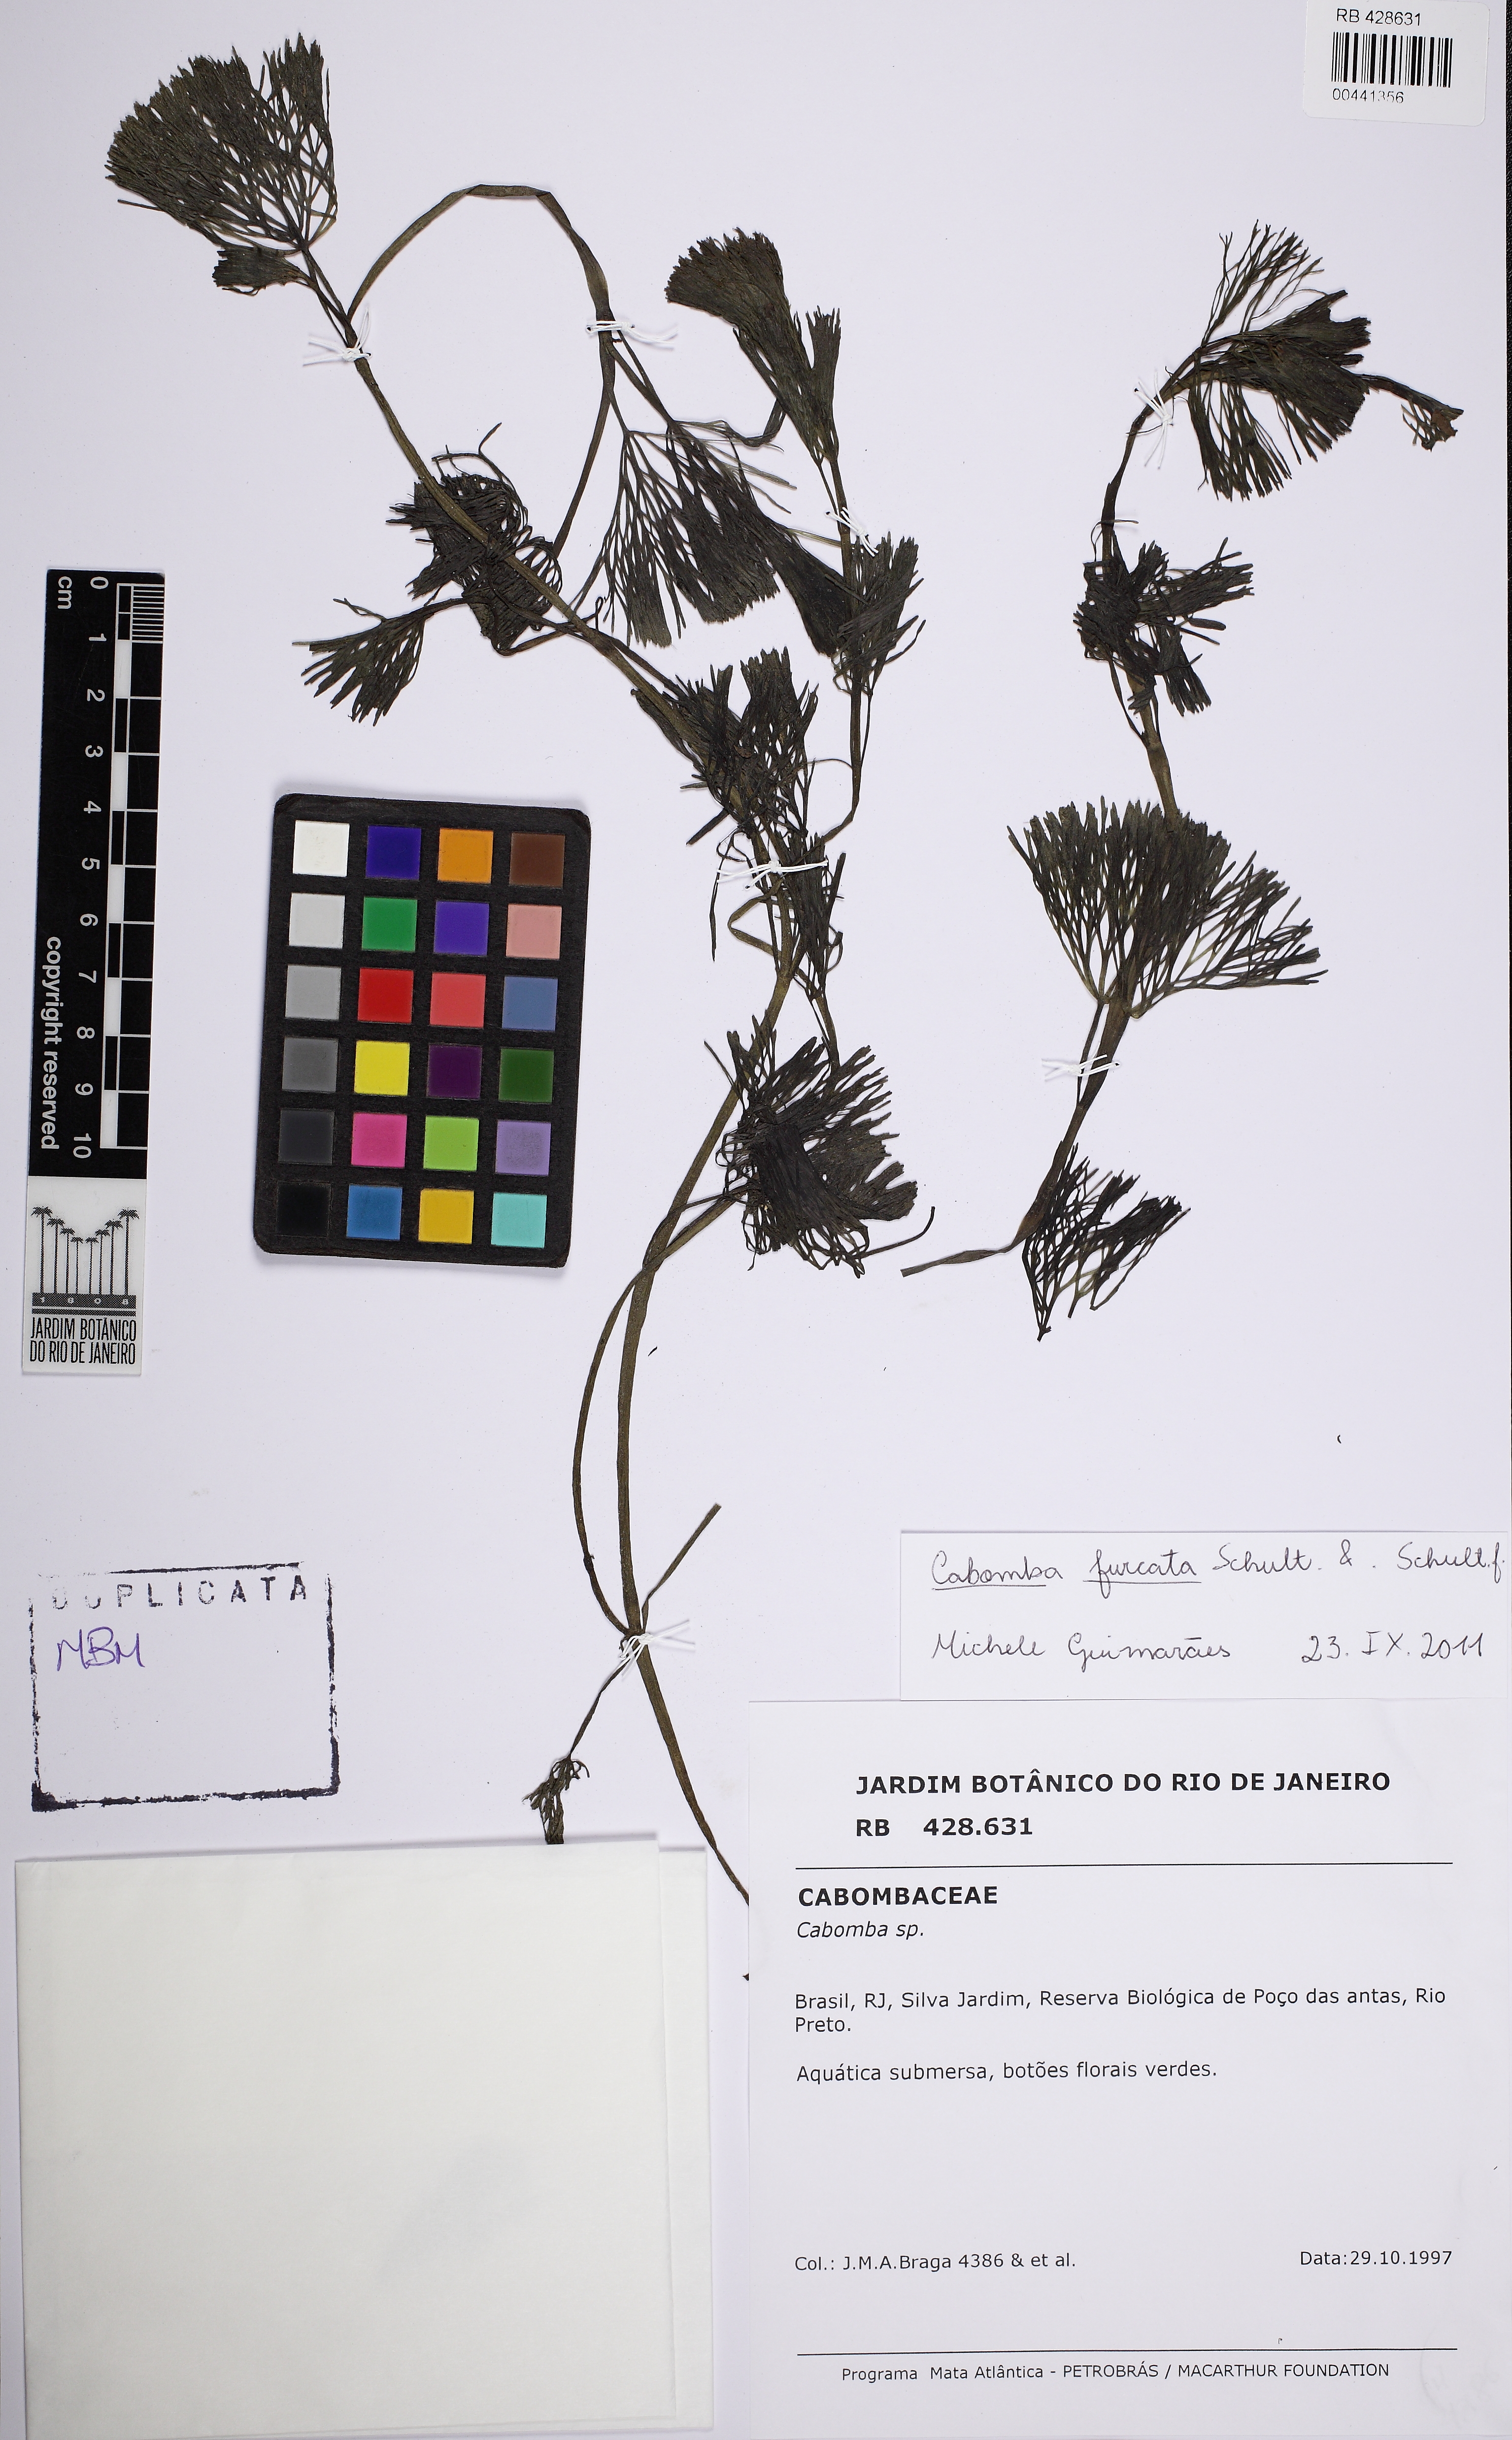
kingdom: Plantae
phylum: Tracheophyta
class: Magnoliopsida
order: Nymphaeales
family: Cabombaceae
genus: Cabomba
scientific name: Cabomba furcata
